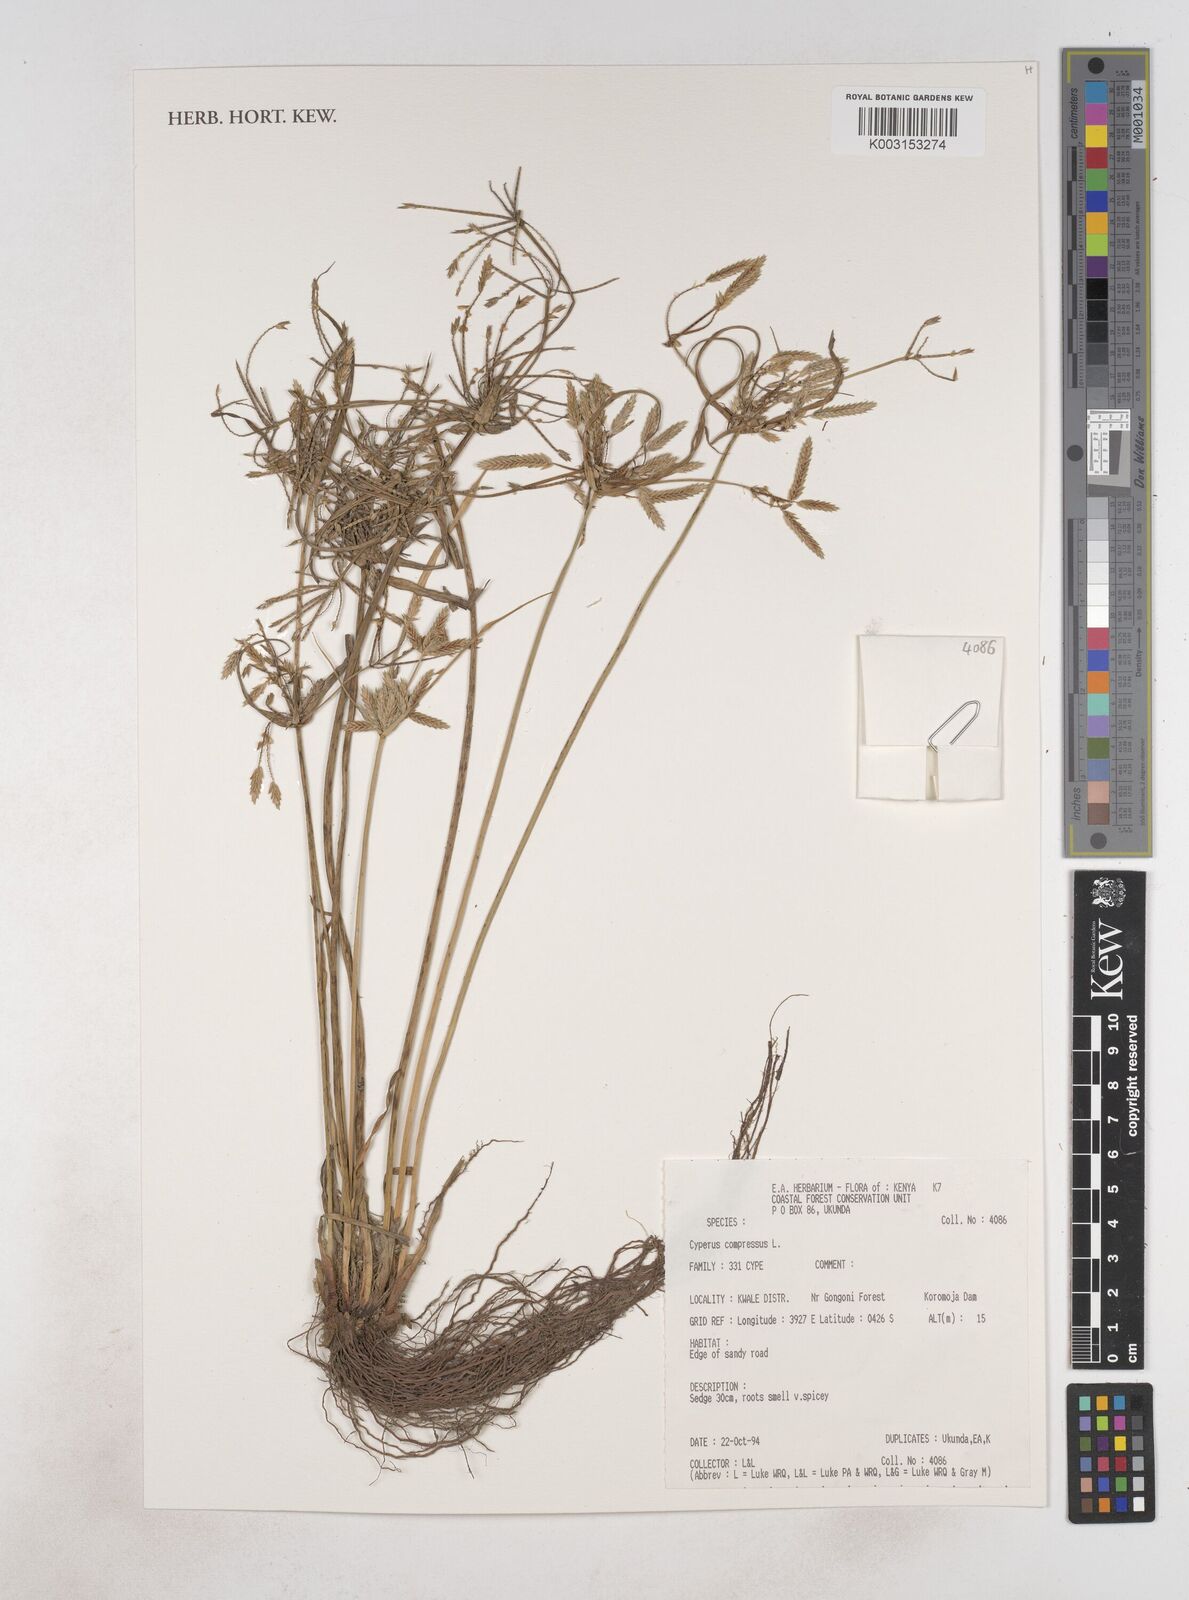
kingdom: Plantae
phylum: Tracheophyta
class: Liliopsida
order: Poales
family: Cyperaceae
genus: Cyperus
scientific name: Cyperus compressus
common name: Poorland flatsedge
